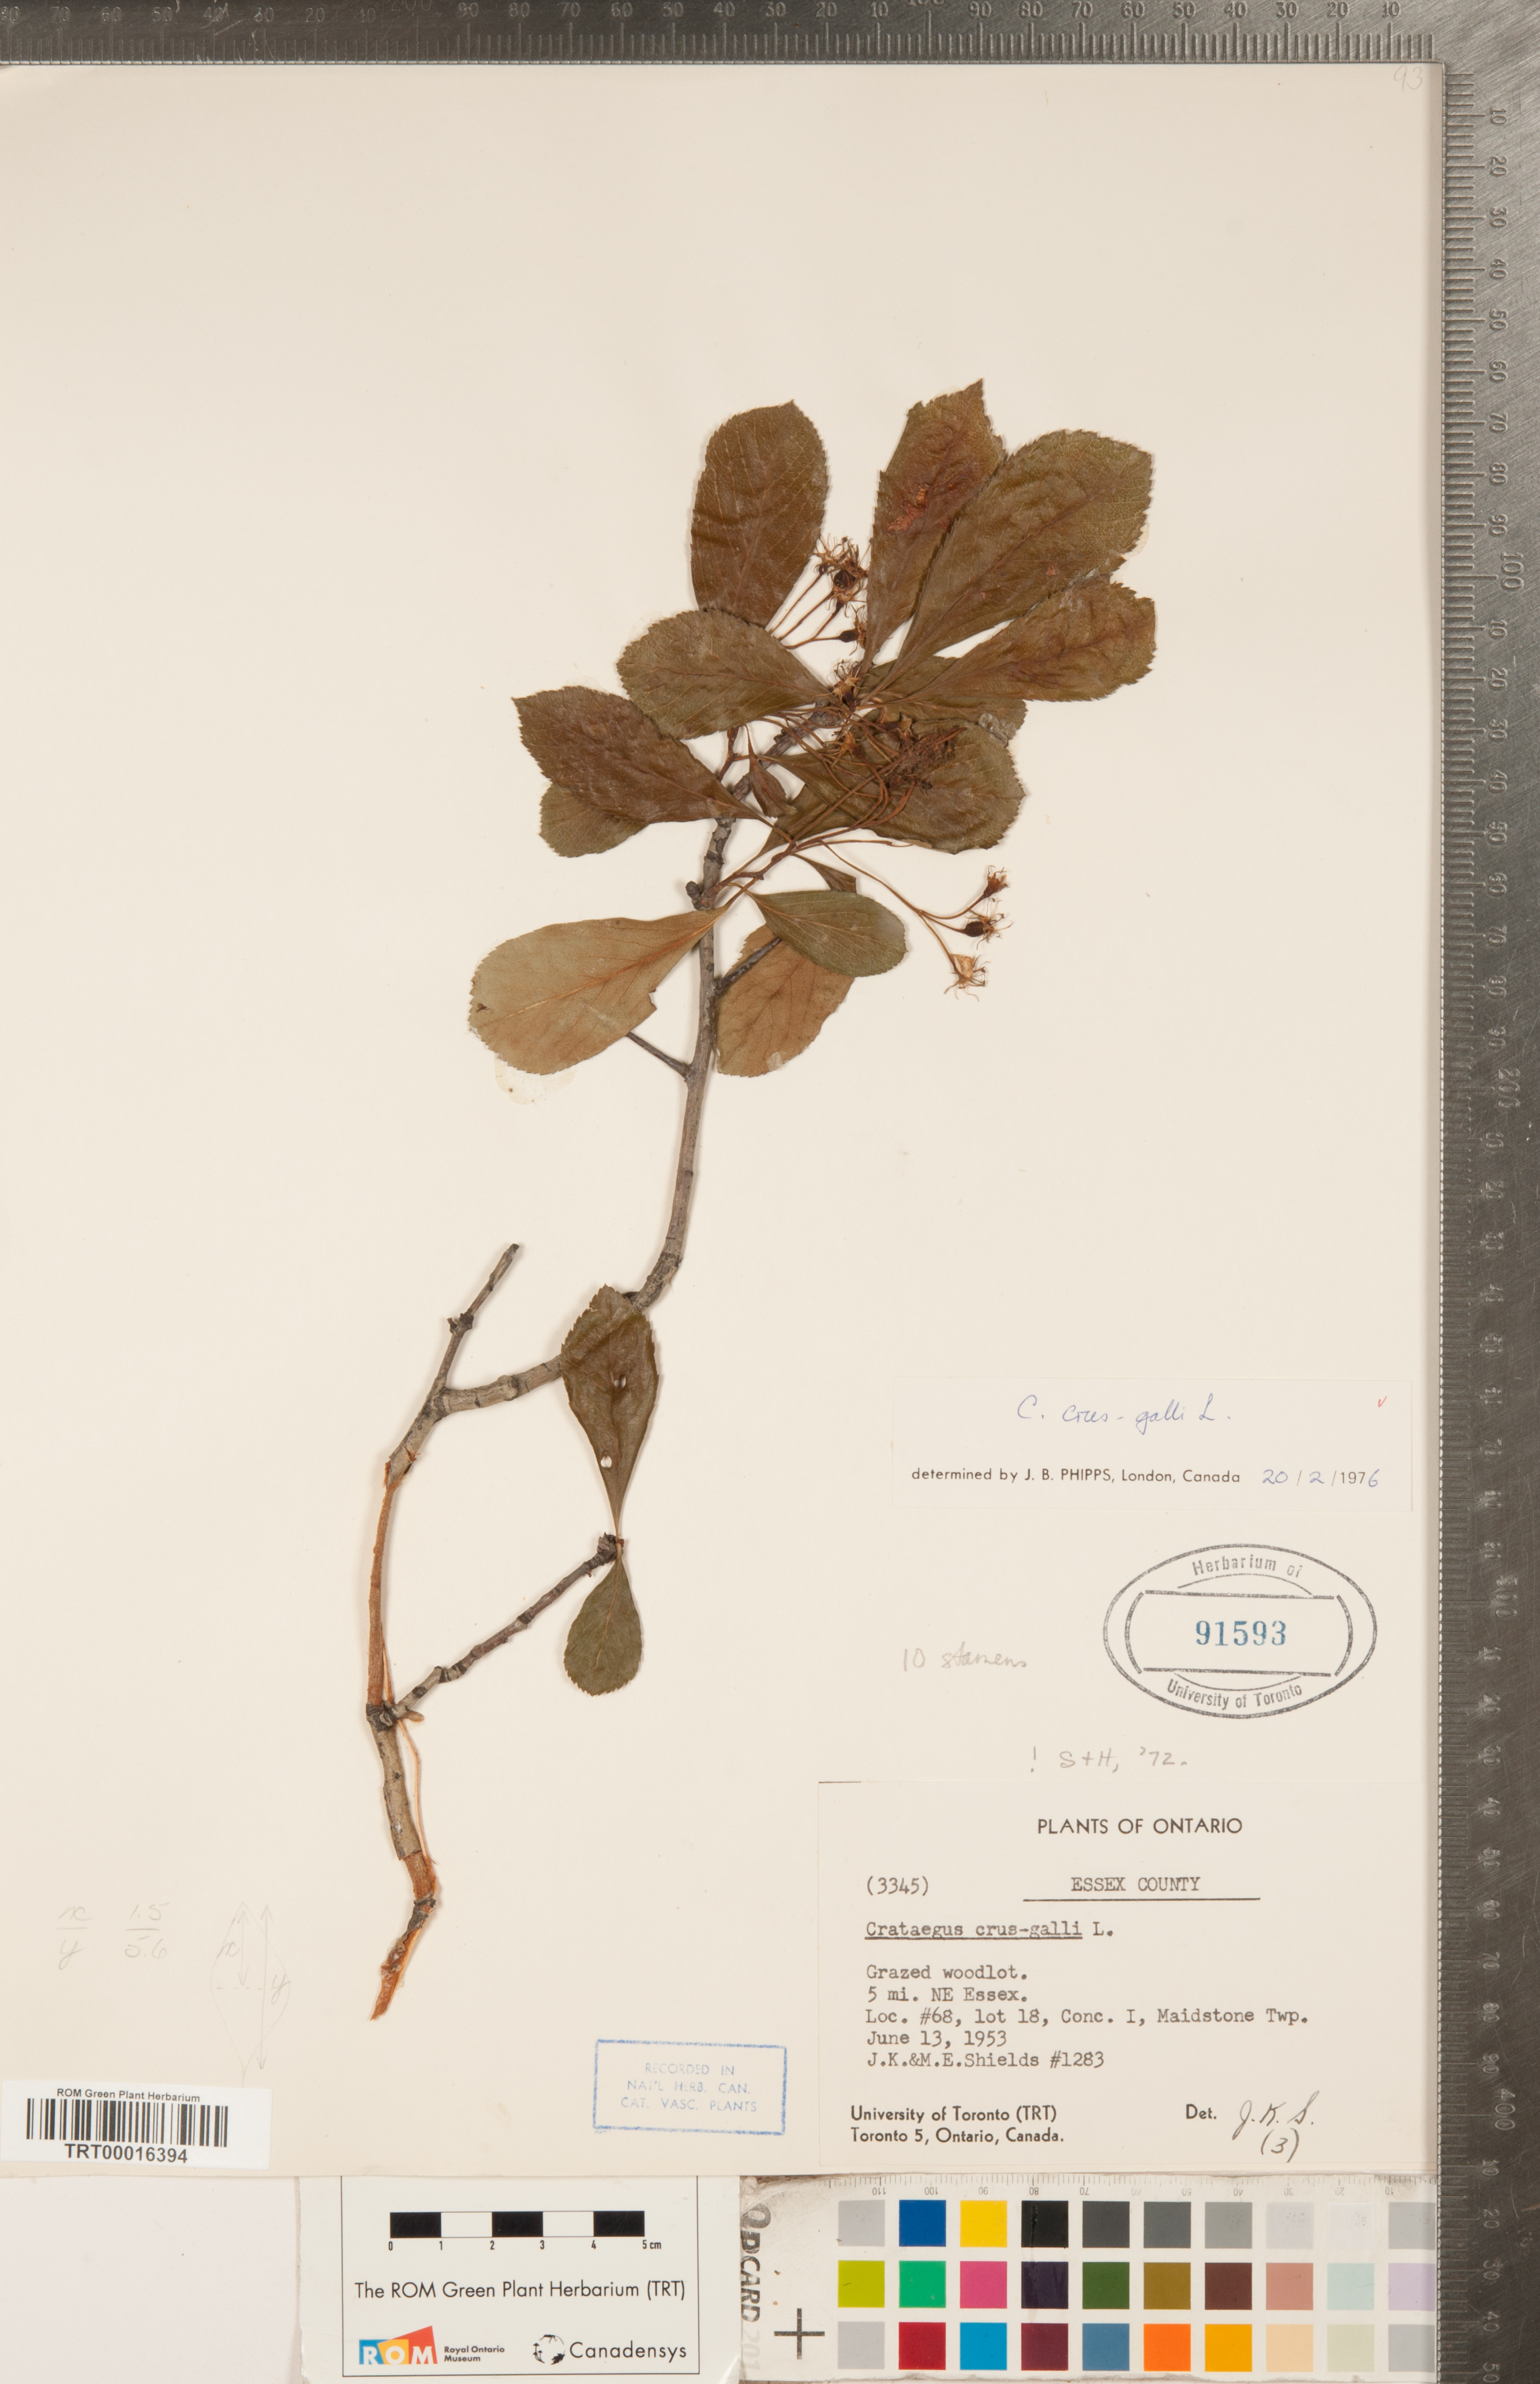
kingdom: Plantae
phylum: Tracheophyta
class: Magnoliopsida
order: Rosales
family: Rosaceae
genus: Crataegus
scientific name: Crataegus crus-galli
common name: Cockspurthorn
